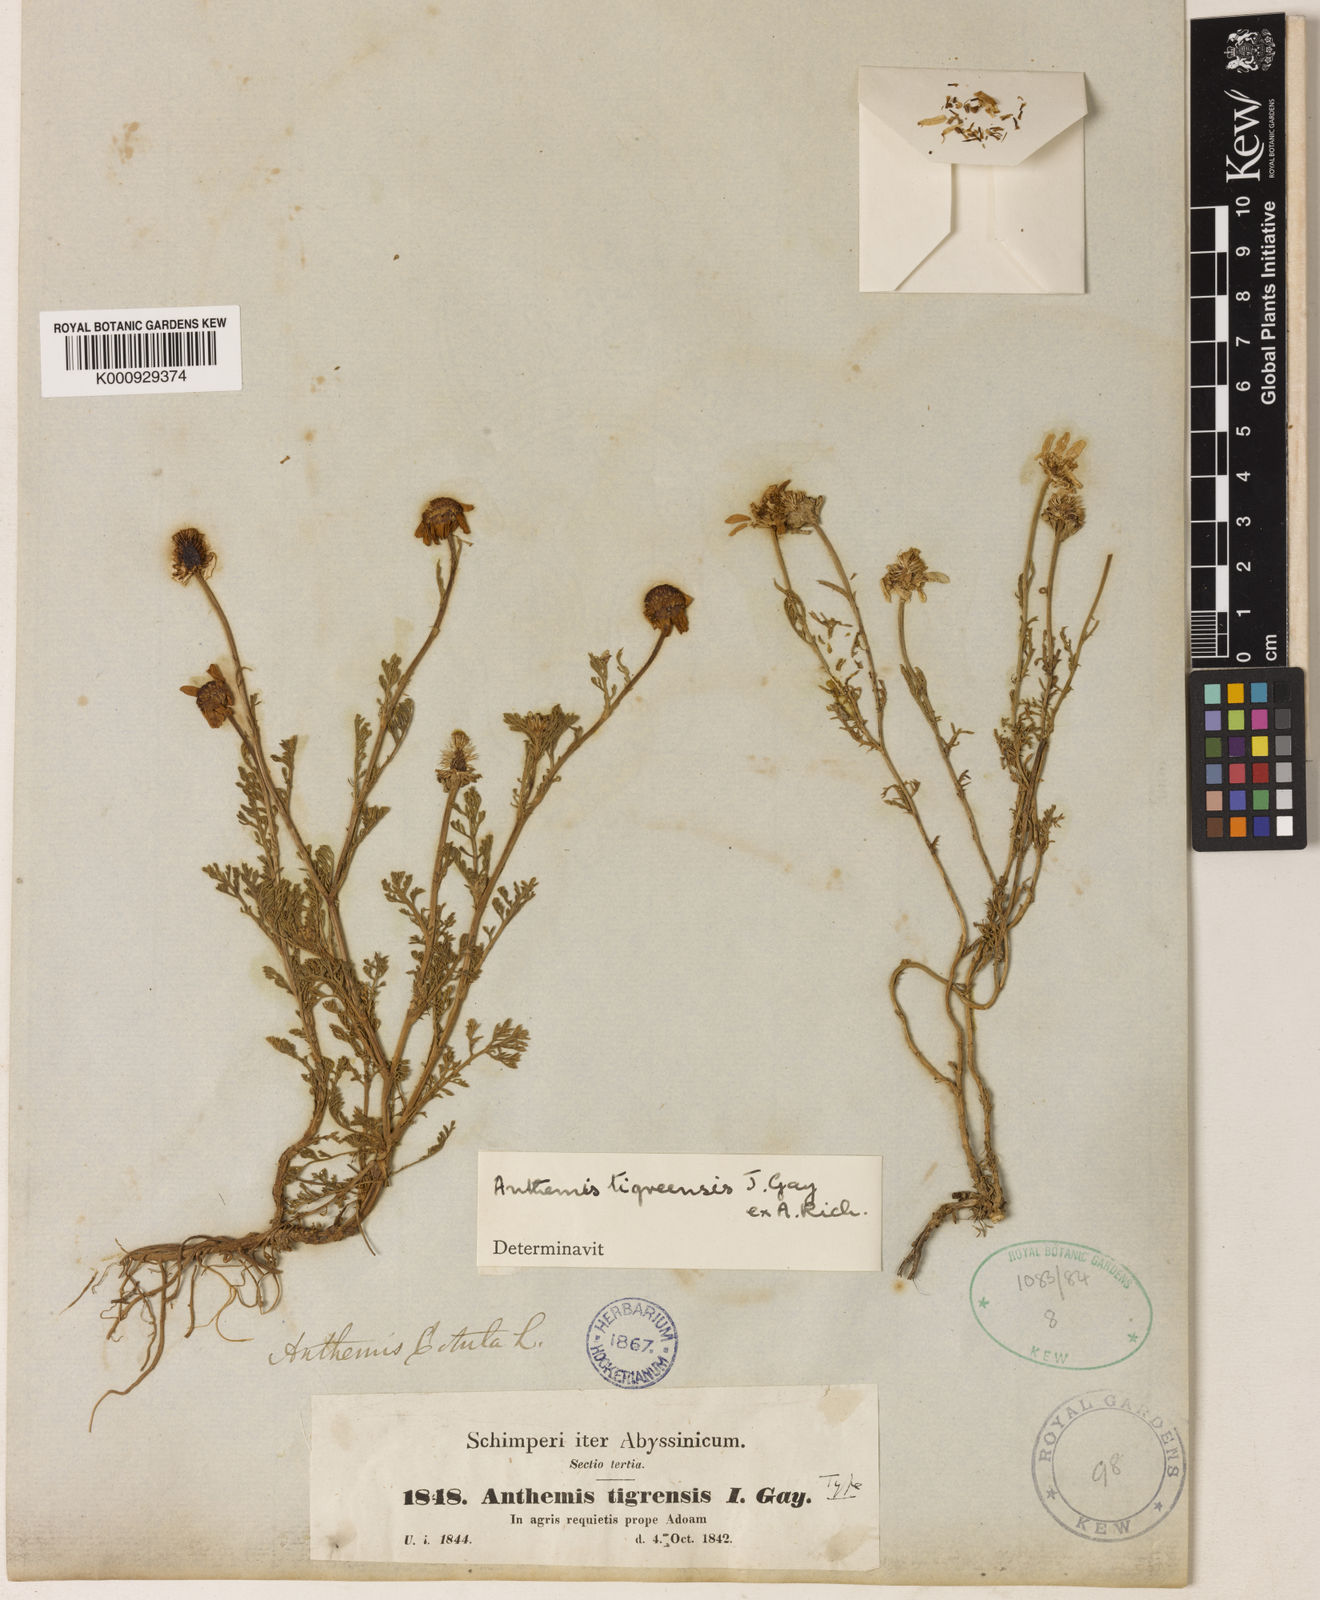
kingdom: Plantae
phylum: Tracheophyta
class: Magnoliopsida
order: Asterales
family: Asteraceae
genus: Anthemis
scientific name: Anthemis tigreensis
